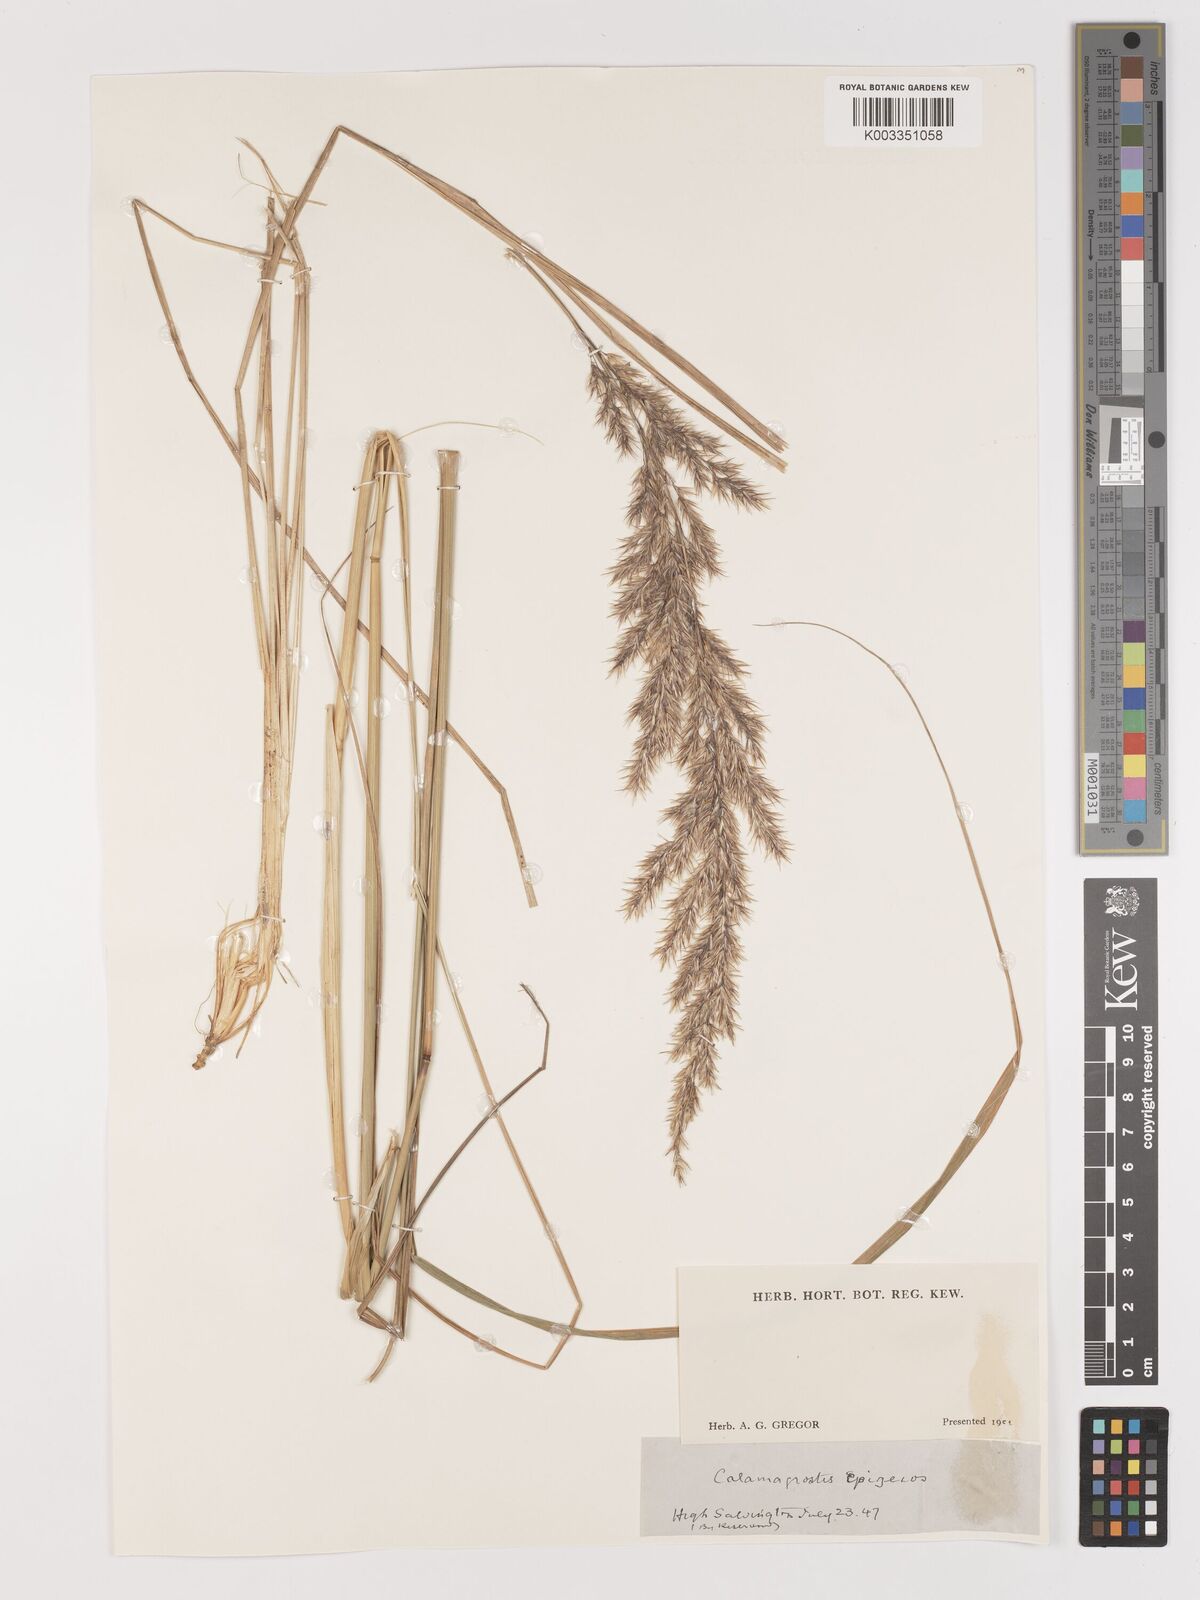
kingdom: Plantae
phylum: Tracheophyta
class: Liliopsida
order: Poales
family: Poaceae
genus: Calamagrostis
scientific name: Calamagrostis epigejos
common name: Wood small-reed
